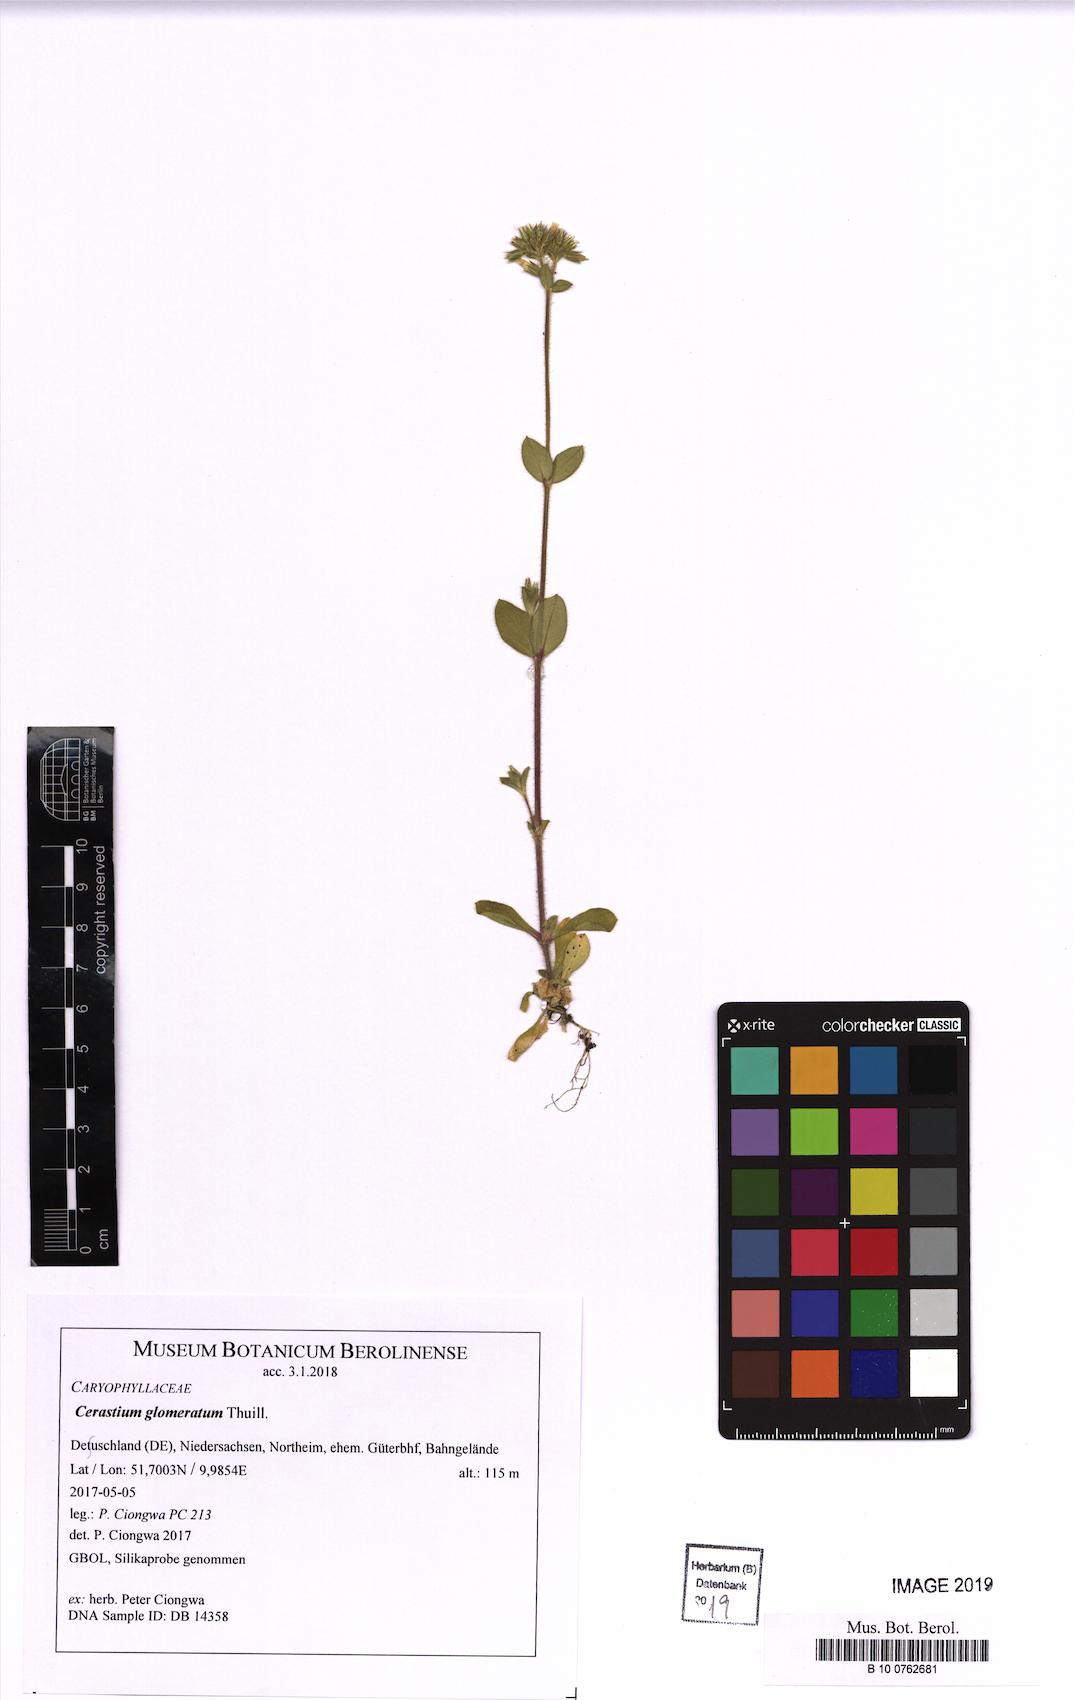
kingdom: Plantae
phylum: Tracheophyta
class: Magnoliopsida
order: Caryophyllales
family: Caryophyllaceae
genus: Cerastium
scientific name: Cerastium glomeratum
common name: Sticky chickweed
